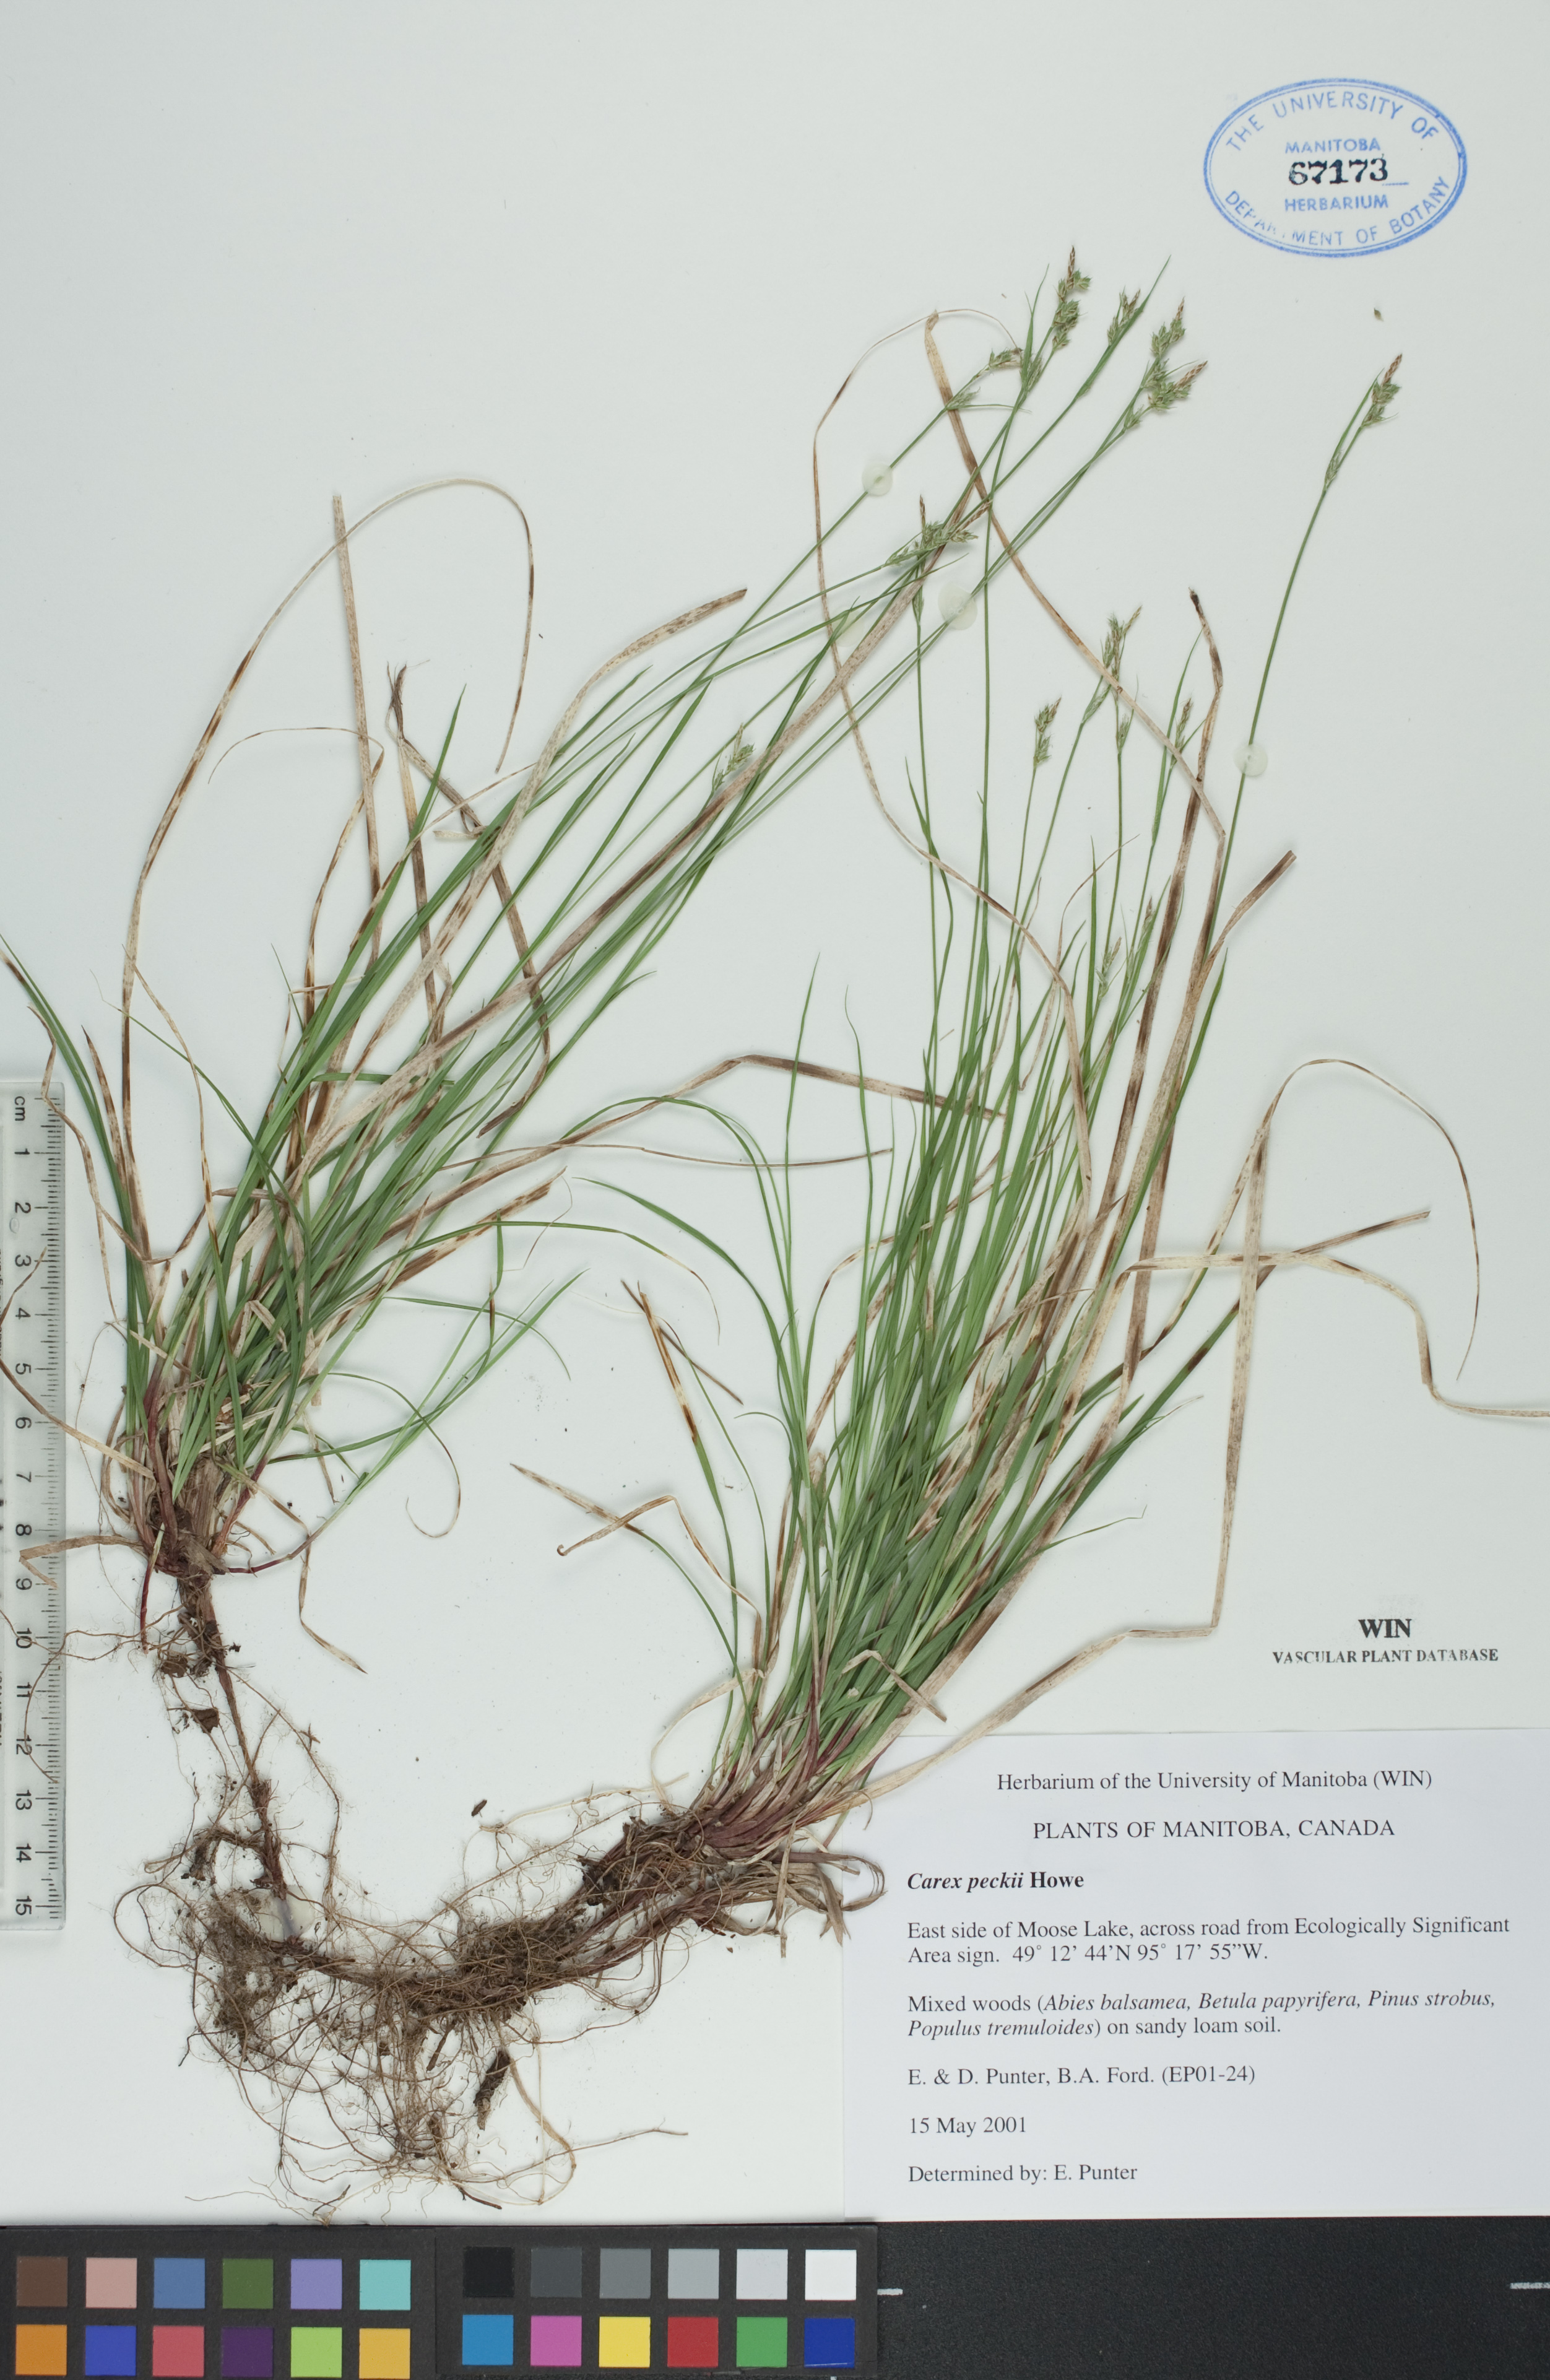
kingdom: Plantae
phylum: Tracheophyta
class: Liliopsida
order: Poales
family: Cyperaceae
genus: Carex
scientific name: Carex peckii
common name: Peck's oak sedge
